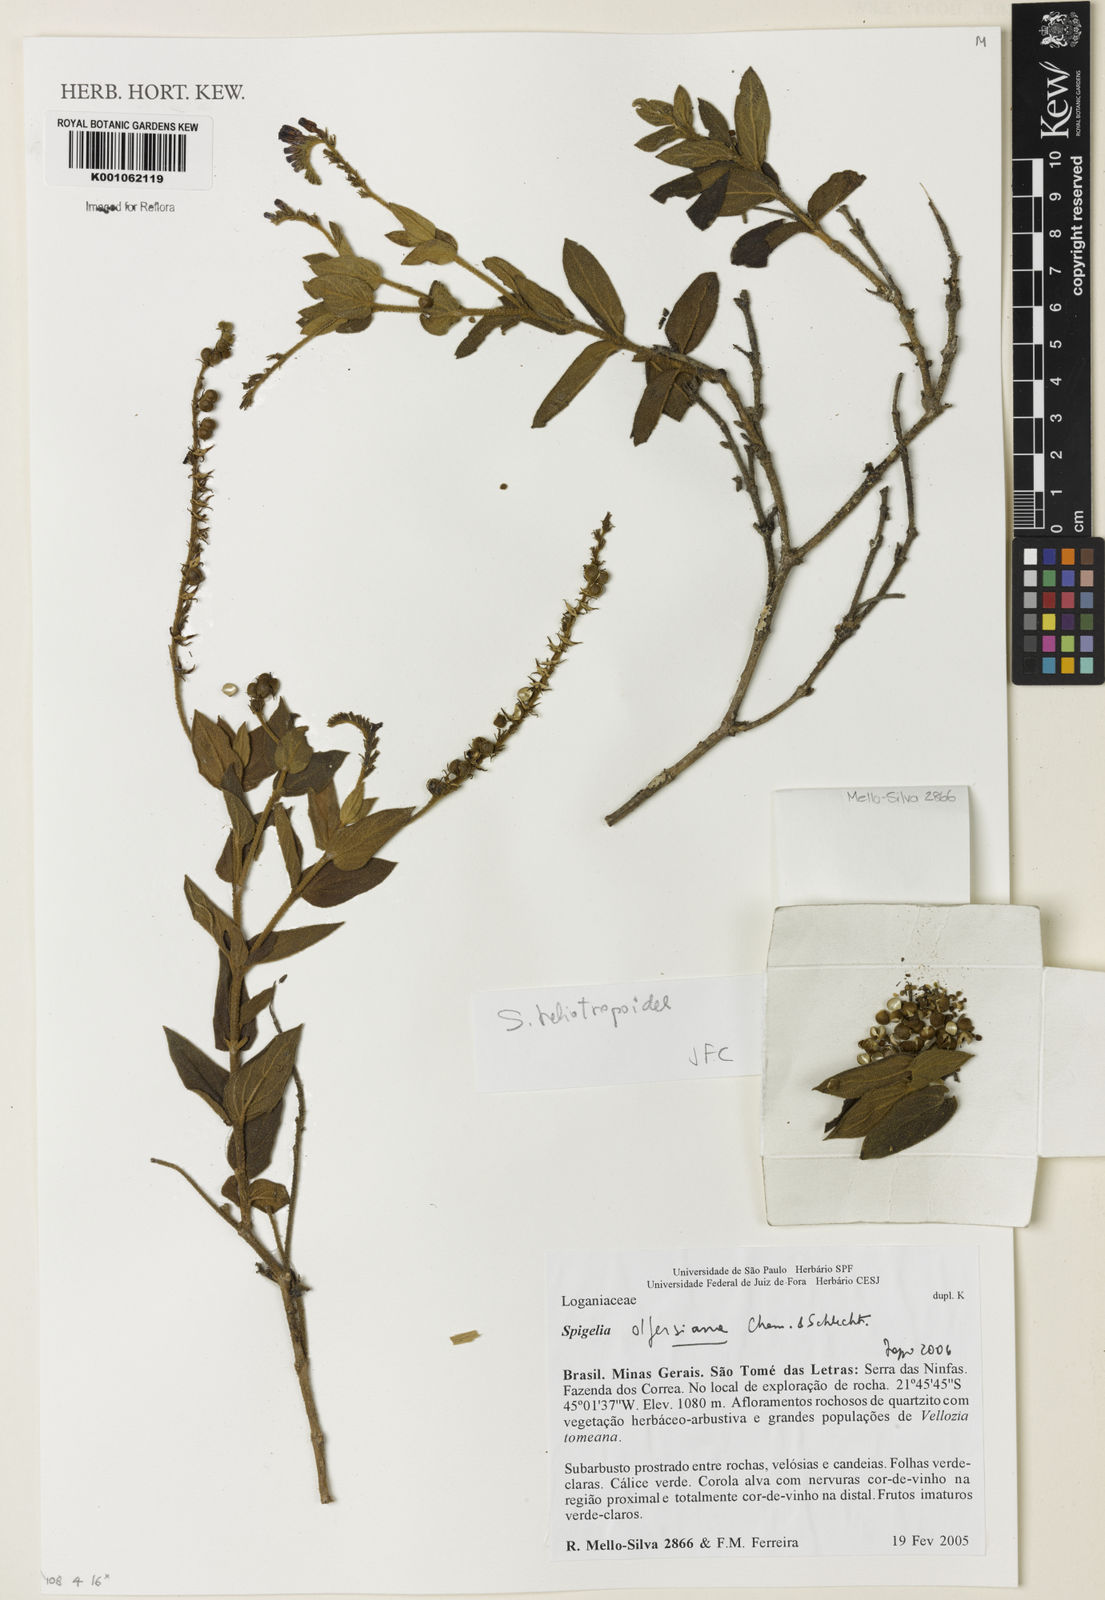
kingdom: Plantae
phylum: Tracheophyta
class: Magnoliopsida
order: Gentianales
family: Loganiaceae
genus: Spigelia
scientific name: Spigelia olfersiana
